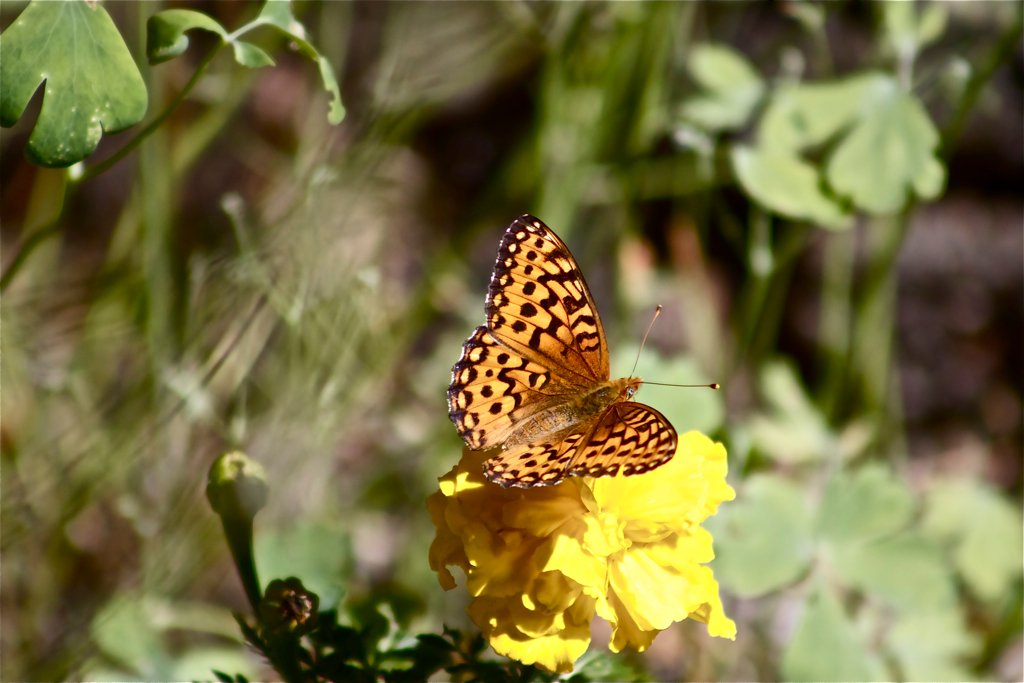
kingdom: Animalia
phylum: Arthropoda
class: Insecta
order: Lepidoptera
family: Nymphalidae
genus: Speyeria
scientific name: Speyeria atlantis
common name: Atlantis Fritillary
